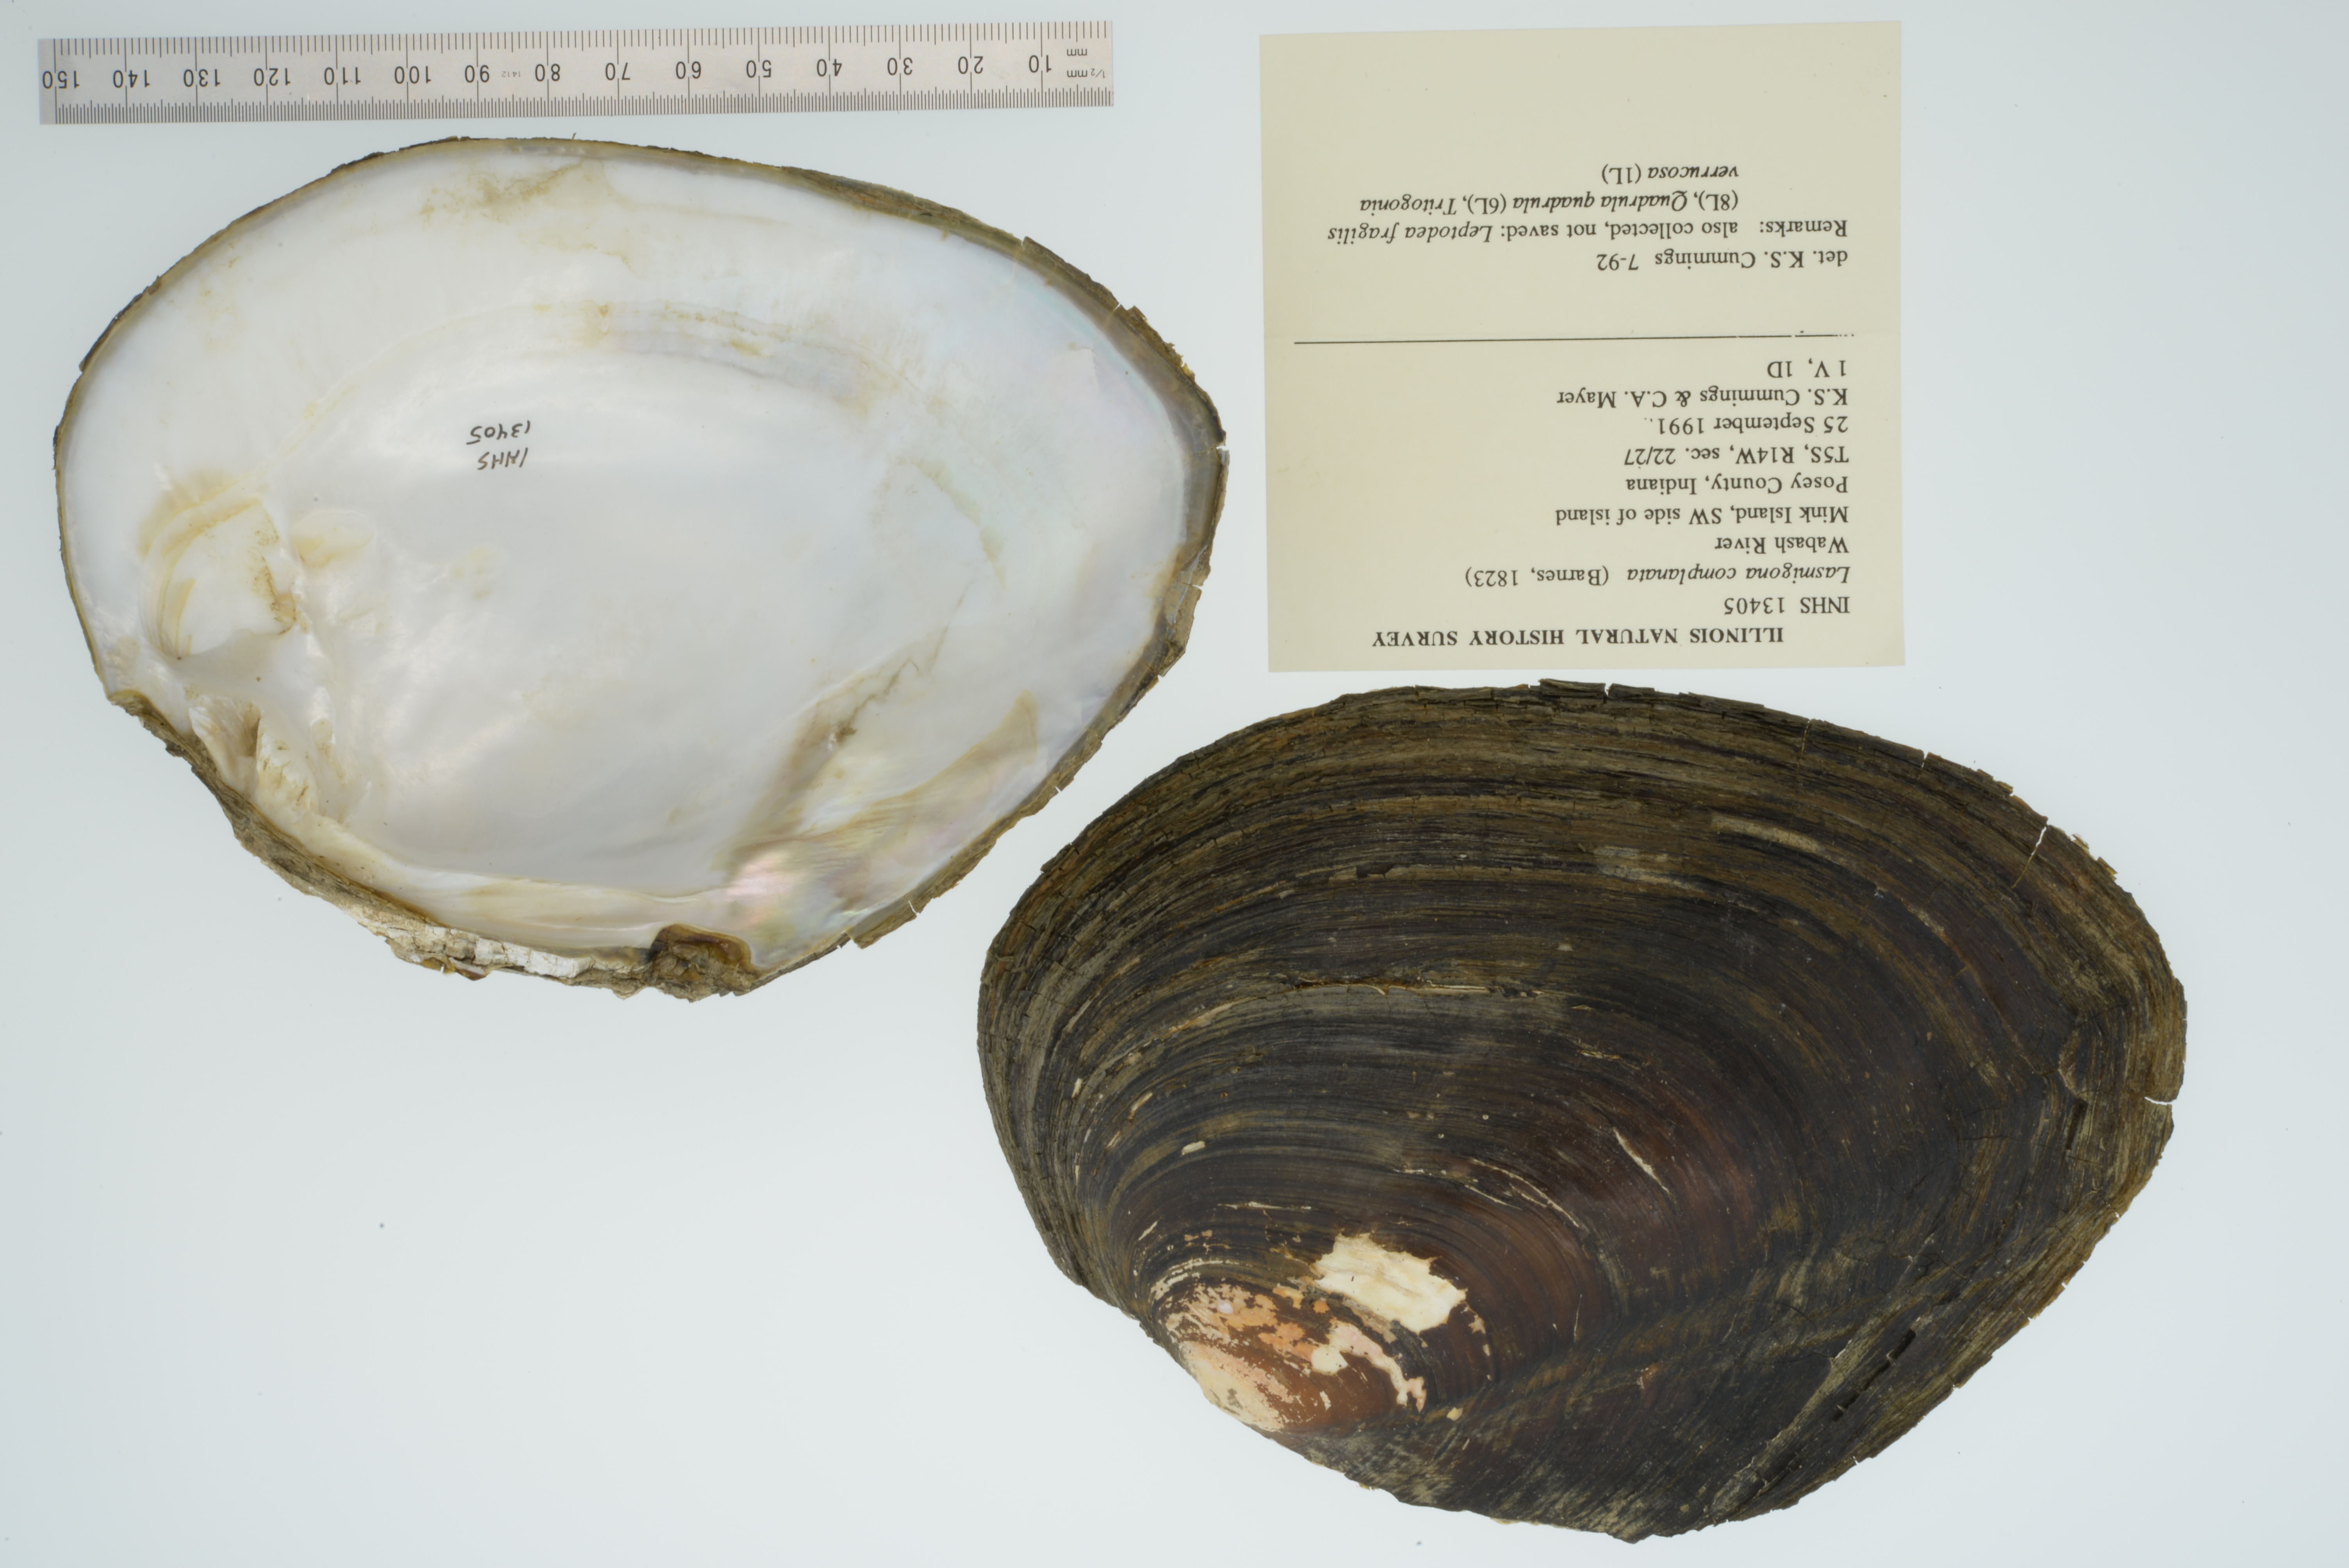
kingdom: Animalia
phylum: Mollusca
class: Bivalvia
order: Unionida
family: Unionidae
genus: Lasmigona
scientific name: Lasmigona complanata
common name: White heelsplitter
